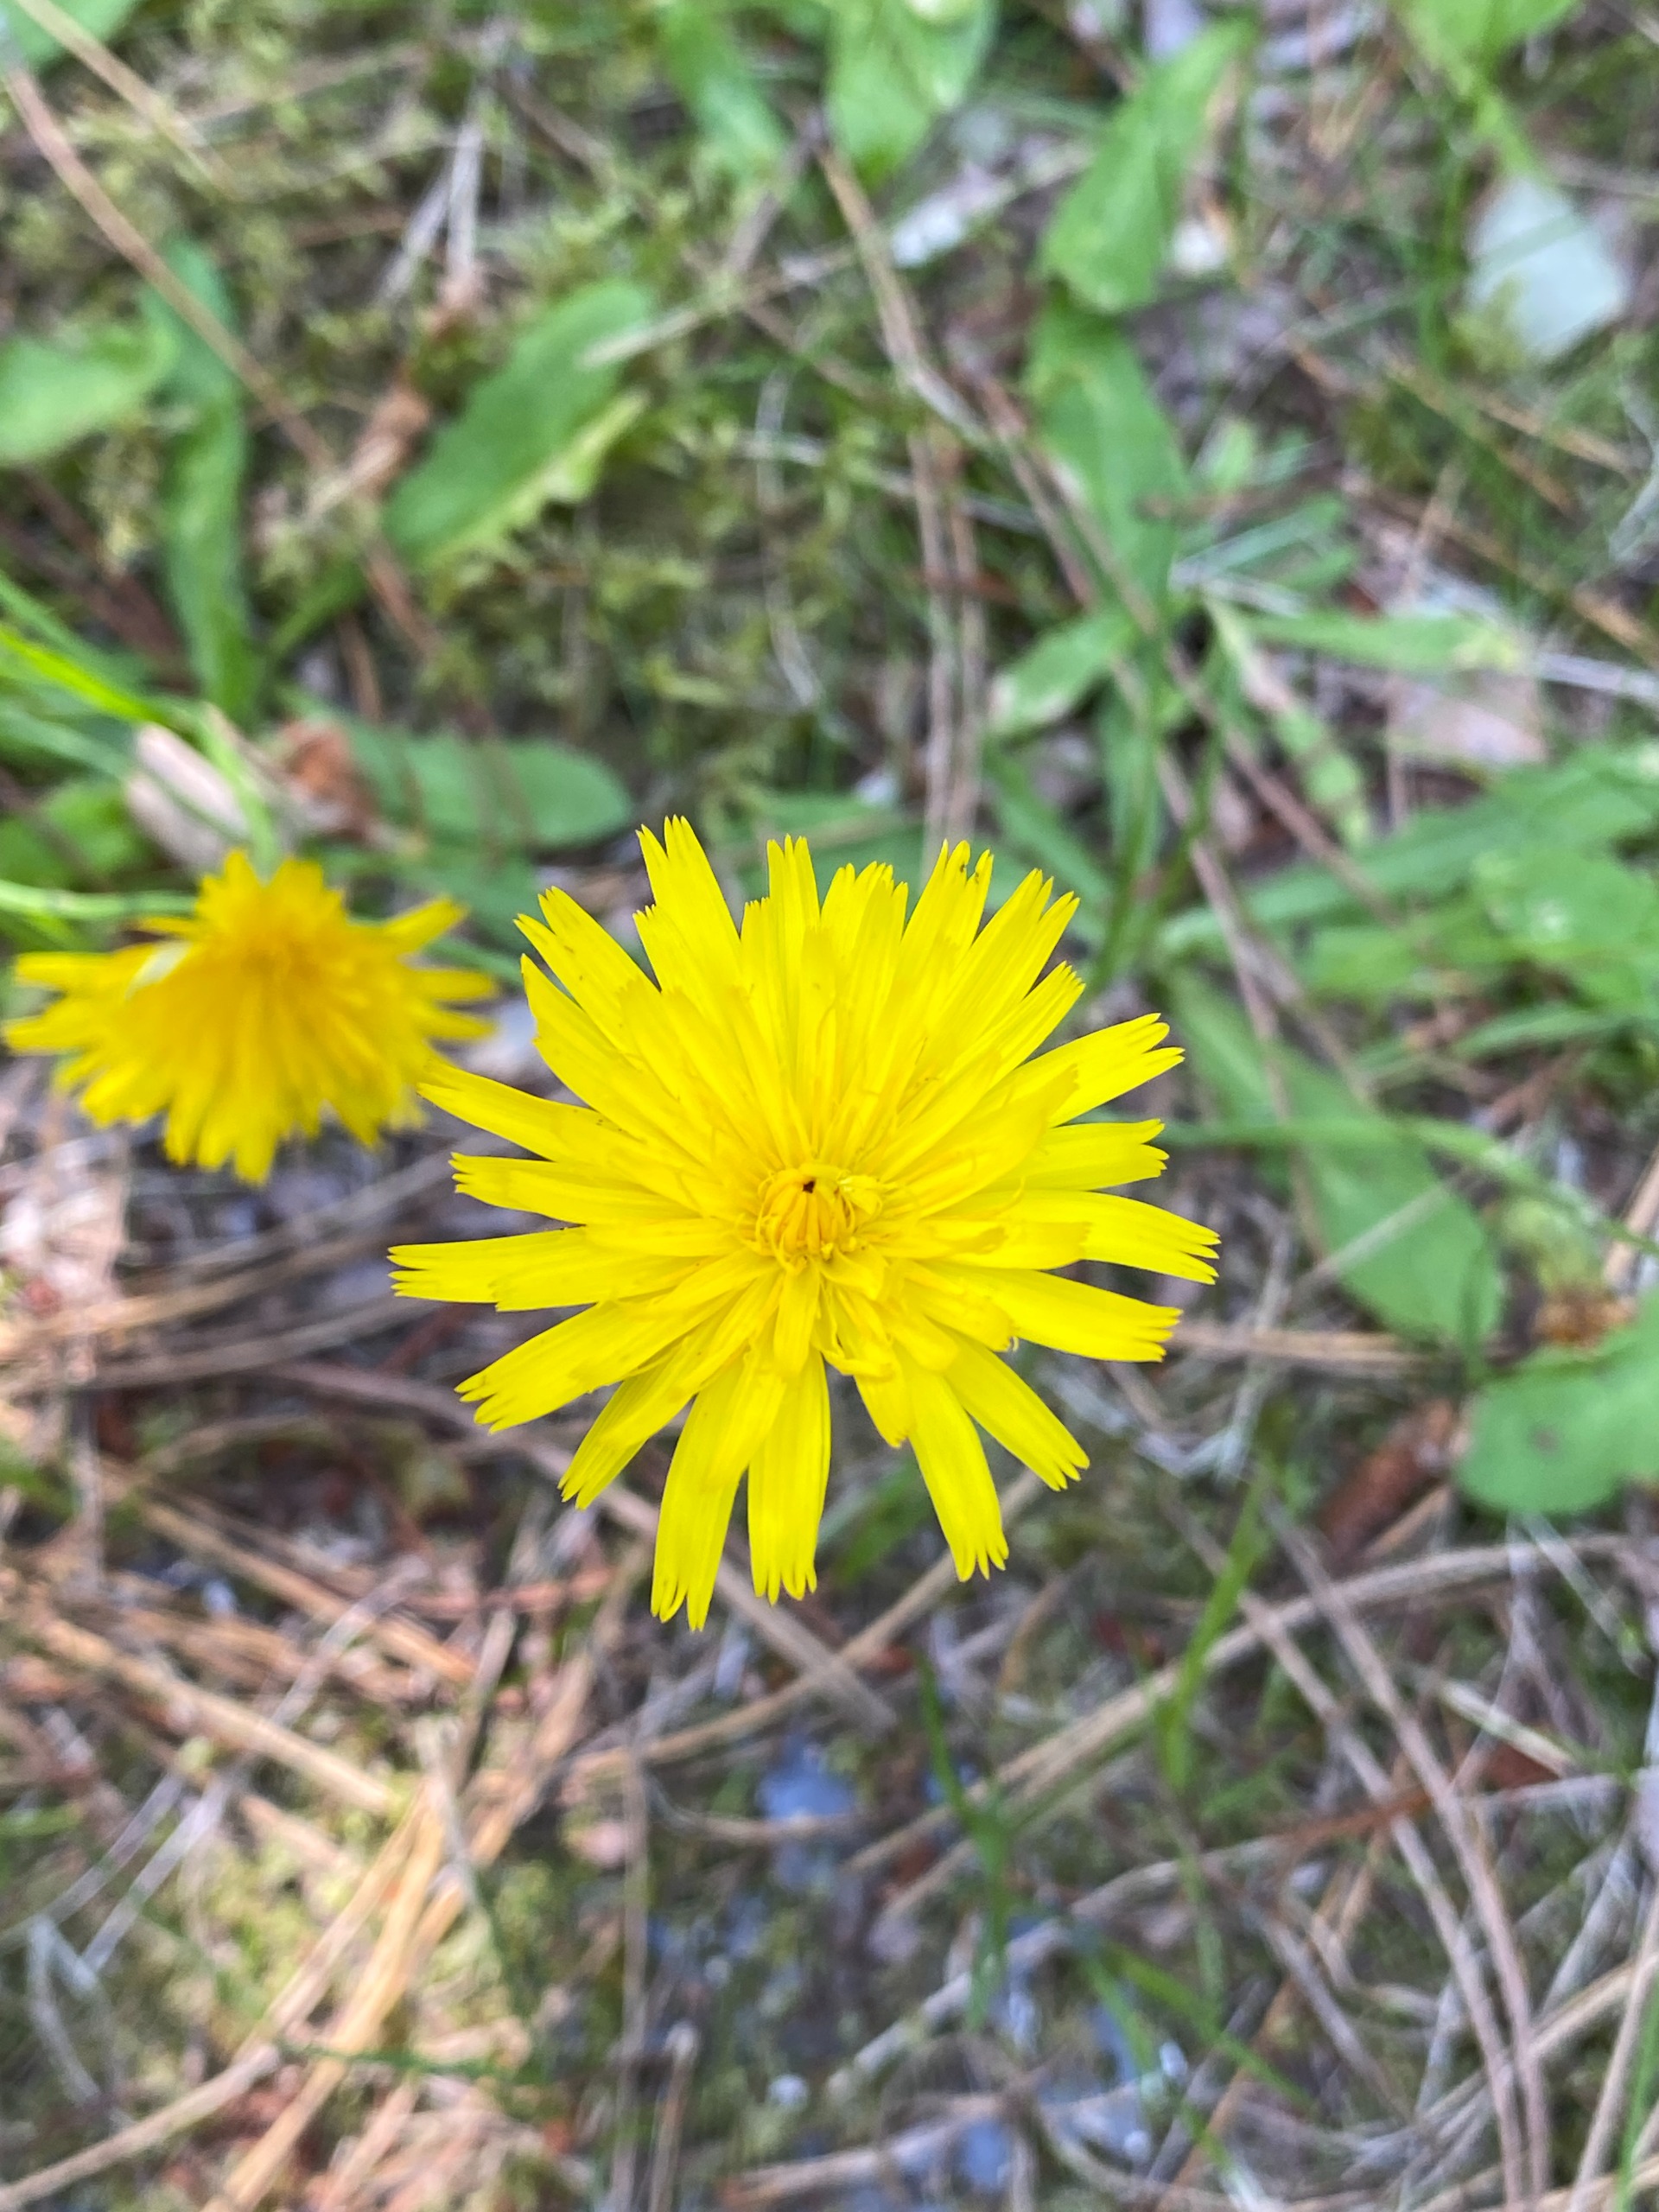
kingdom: Plantae
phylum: Tracheophyta
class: Magnoliopsida
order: Asterales
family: Asteraceae
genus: Hypochaeris
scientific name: Hypochaeris radicata
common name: Almindelig kongepen
